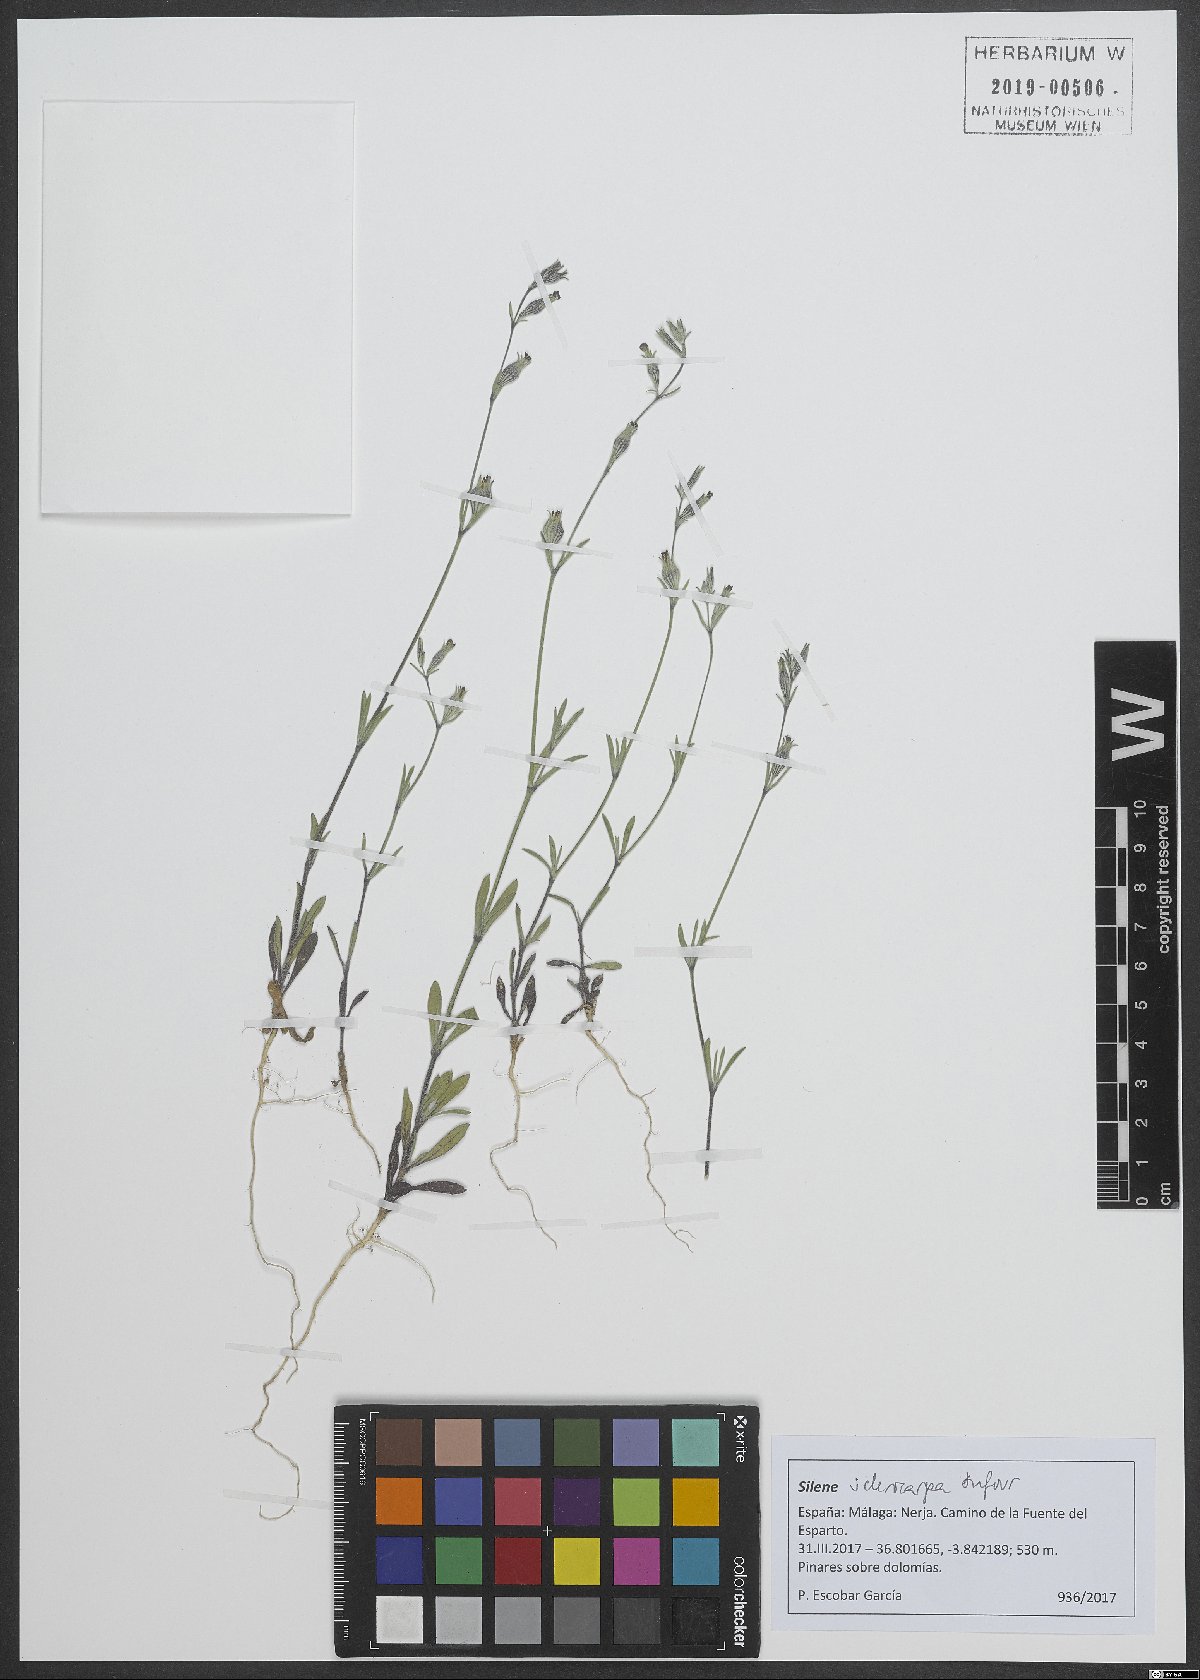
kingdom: Plantae
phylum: Tracheophyta
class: Magnoliopsida
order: Caryophyllales
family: Caryophyllaceae
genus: Silene
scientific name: Silene sclerocarpa
